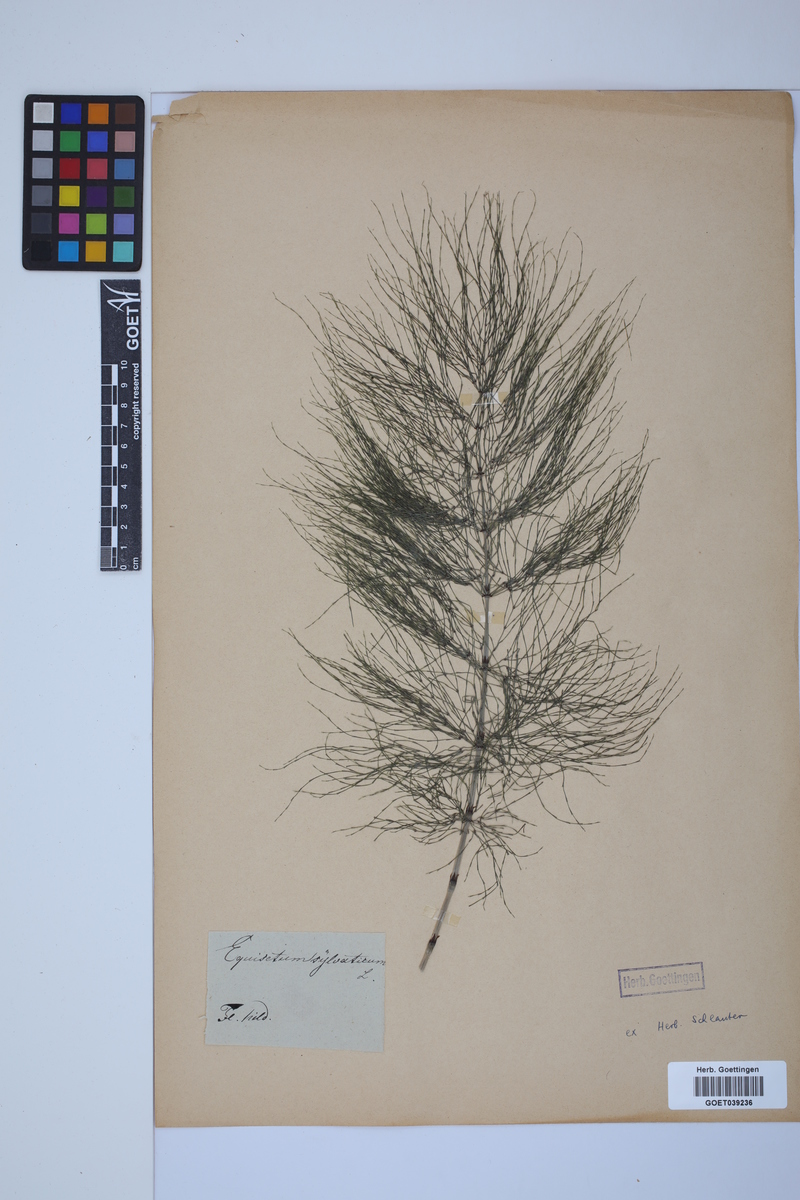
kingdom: Plantae
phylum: Tracheophyta
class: Polypodiopsida
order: Equisetales
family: Equisetaceae
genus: Equisetum
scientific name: Equisetum sylvaticum
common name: Wood horsetail
